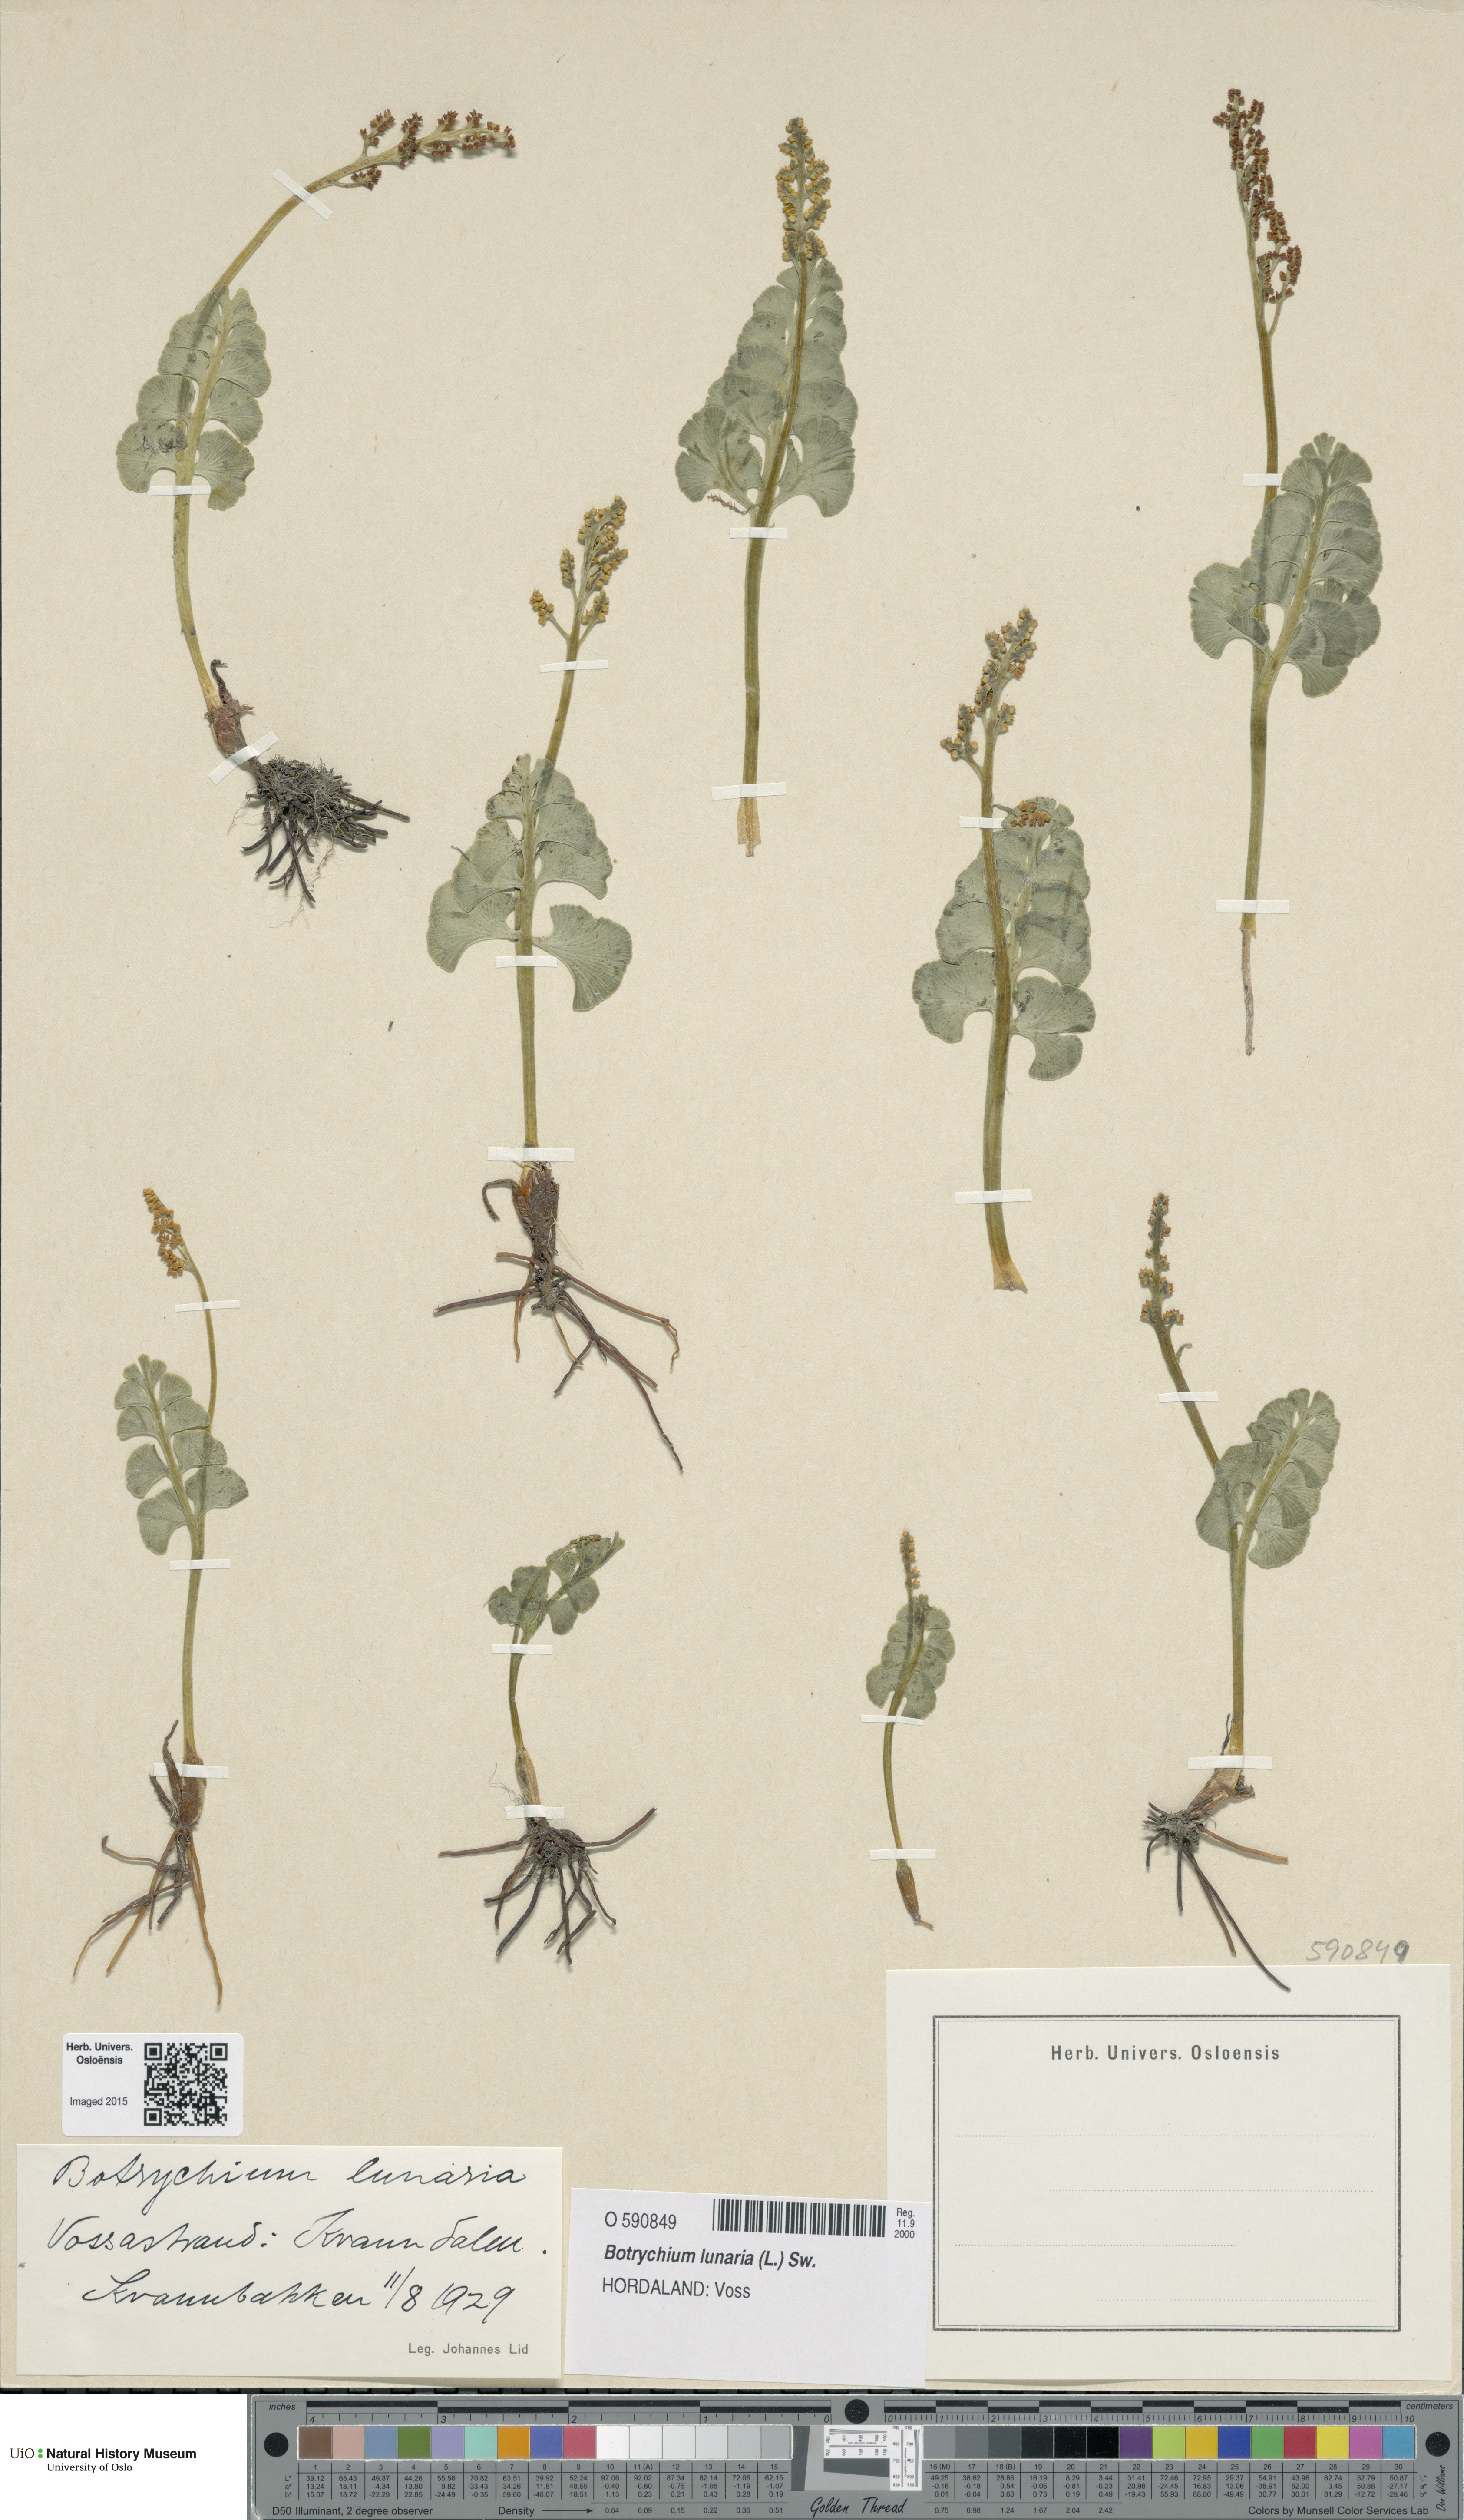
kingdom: Plantae
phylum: Tracheophyta
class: Polypodiopsida
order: Ophioglossales
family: Ophioglossaceae
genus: Botrychium
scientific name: Botrychium lunaria
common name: Moonwort
